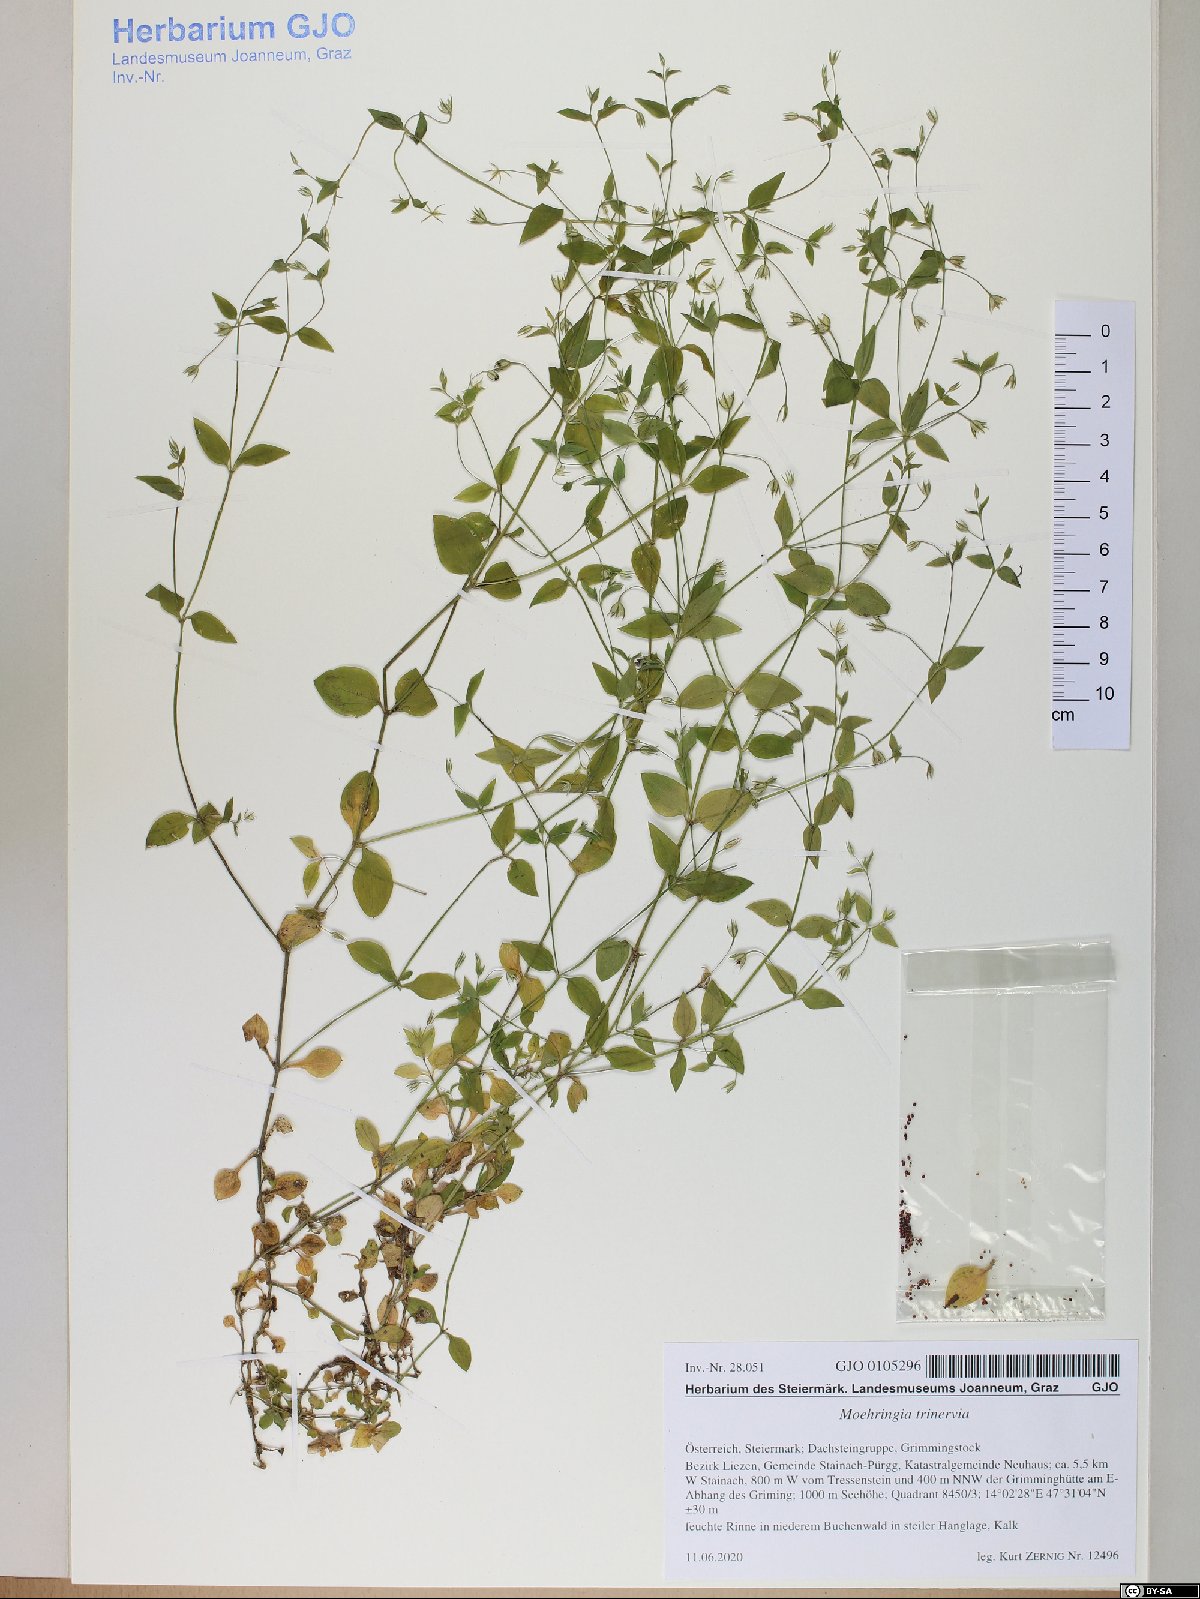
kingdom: Plantae
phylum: Tracheophyta
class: Magnoliopsida
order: Caryophyllales
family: Caryophyllaceae
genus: Moehringia
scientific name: Moehringia trinervia
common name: Three-nerved sandwort
